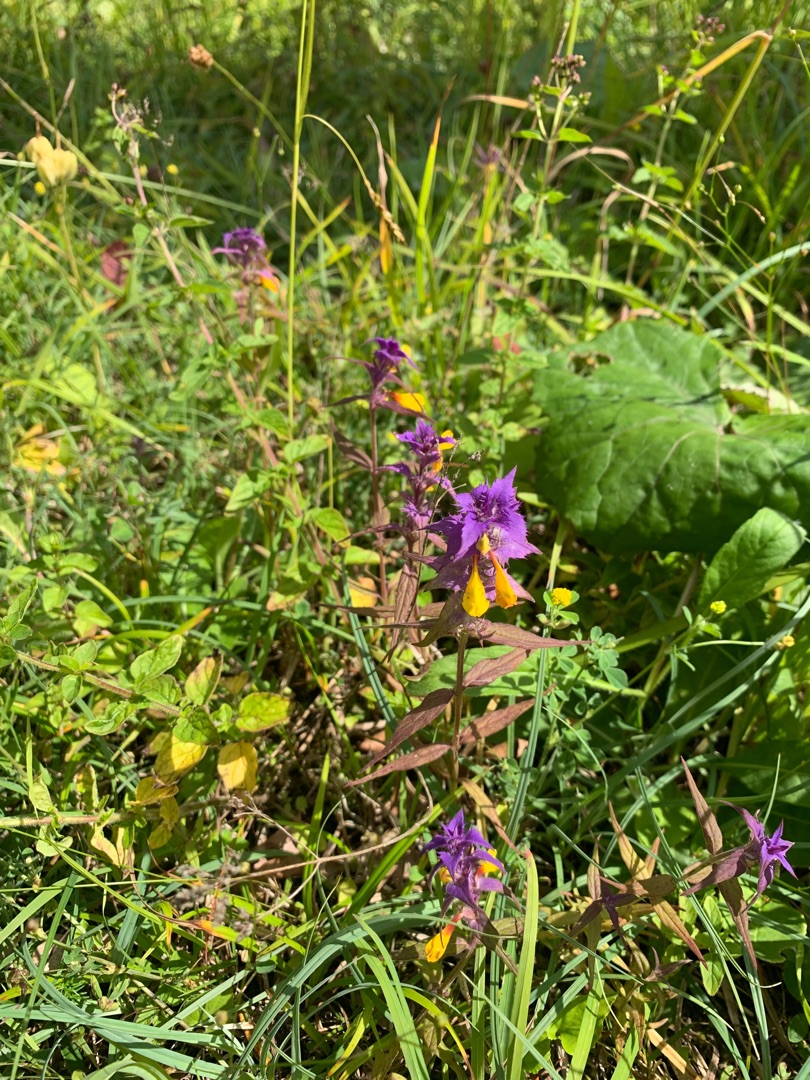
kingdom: Plantae
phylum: Tracheophyta
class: Magnoliopsida
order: Lamiales
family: Orobanchaceae
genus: Melampyrum
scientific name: Melampyrum nemorosum
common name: Blåtoppet kohvede
